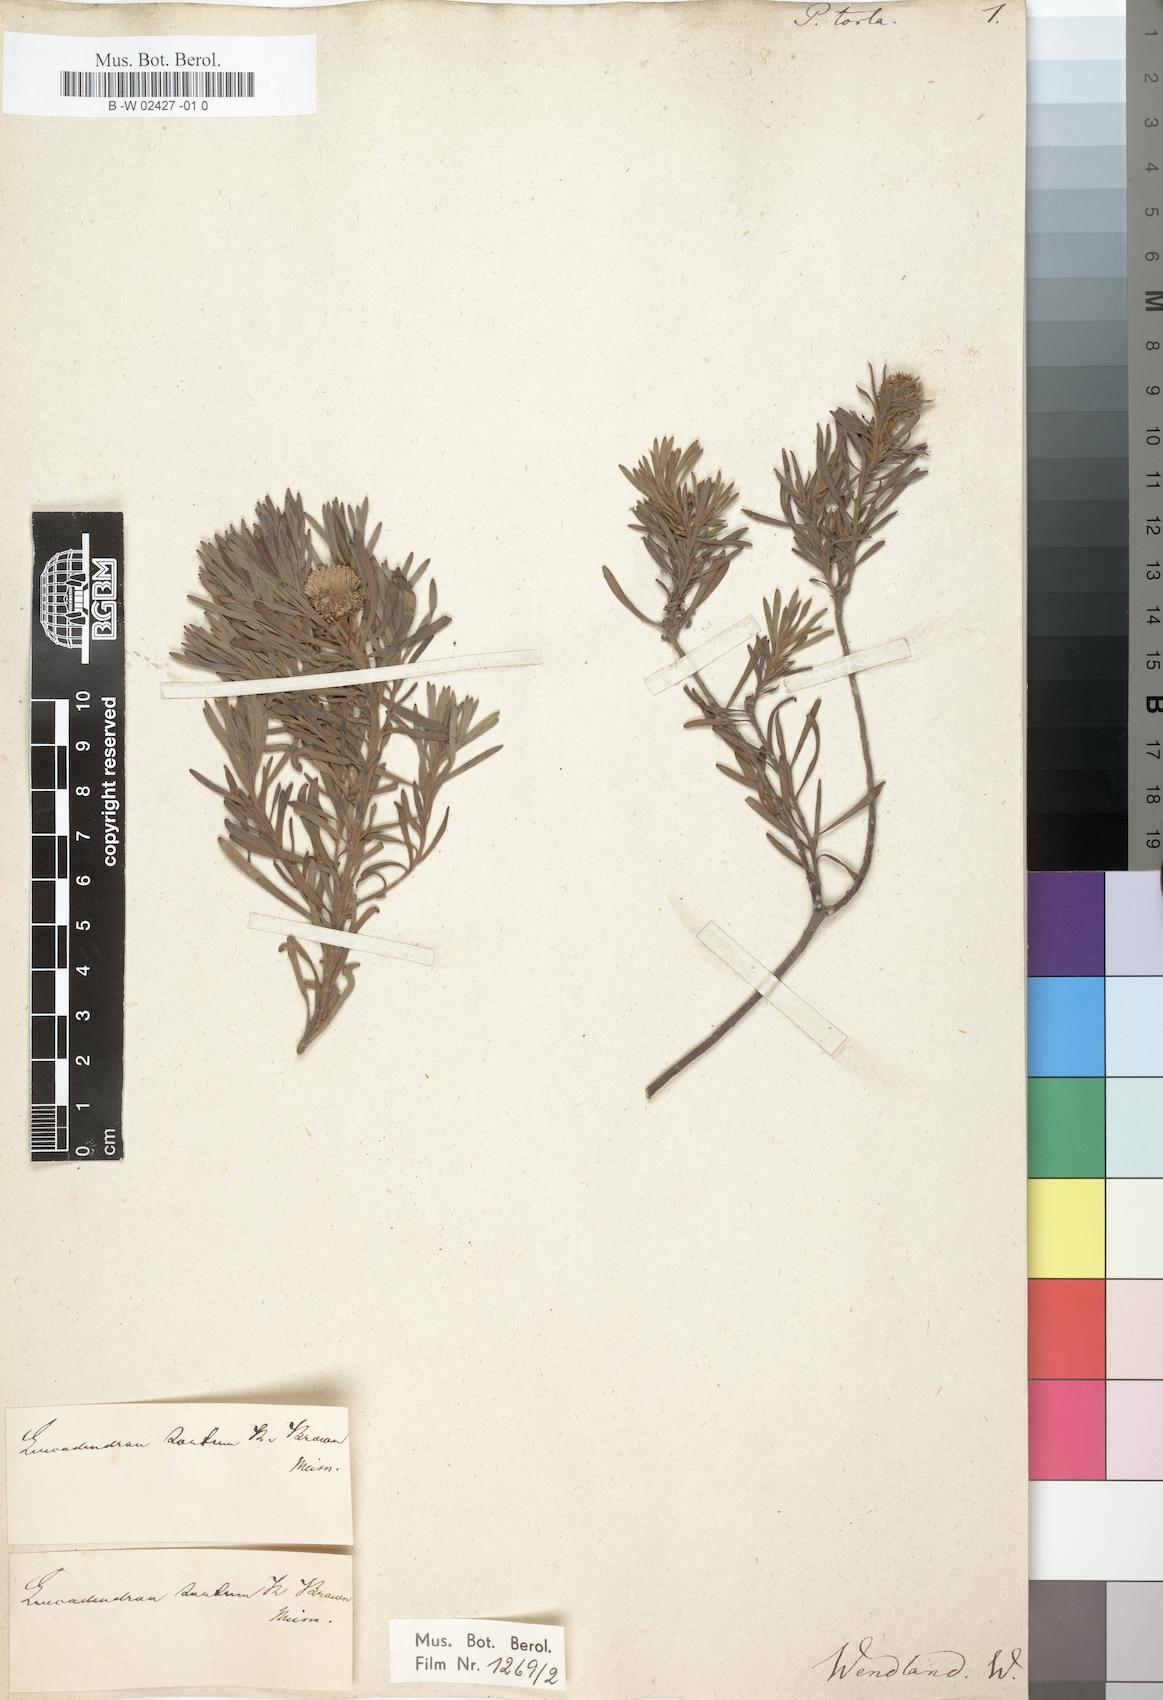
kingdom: Plantae
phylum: Tracheophyta
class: Magnoliopsida
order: Proteales
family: Proteaceae
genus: Leucadendron
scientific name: Leucadendron linifolium
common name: Line-leaf conebush
